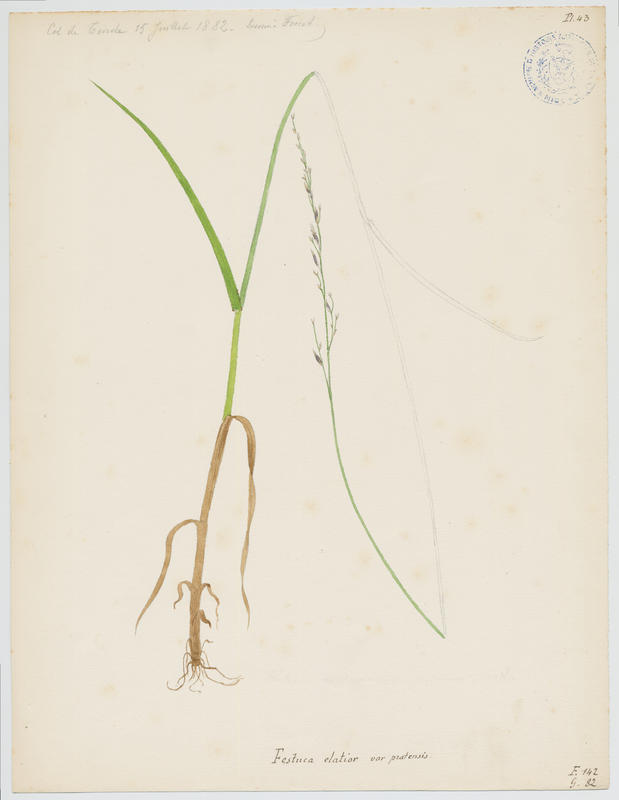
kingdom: Plantae
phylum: Tracheophyta
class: Liliopsida
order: Poales
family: Poaceae
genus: Lolium
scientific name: Lolium pratense
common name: Dover grass
